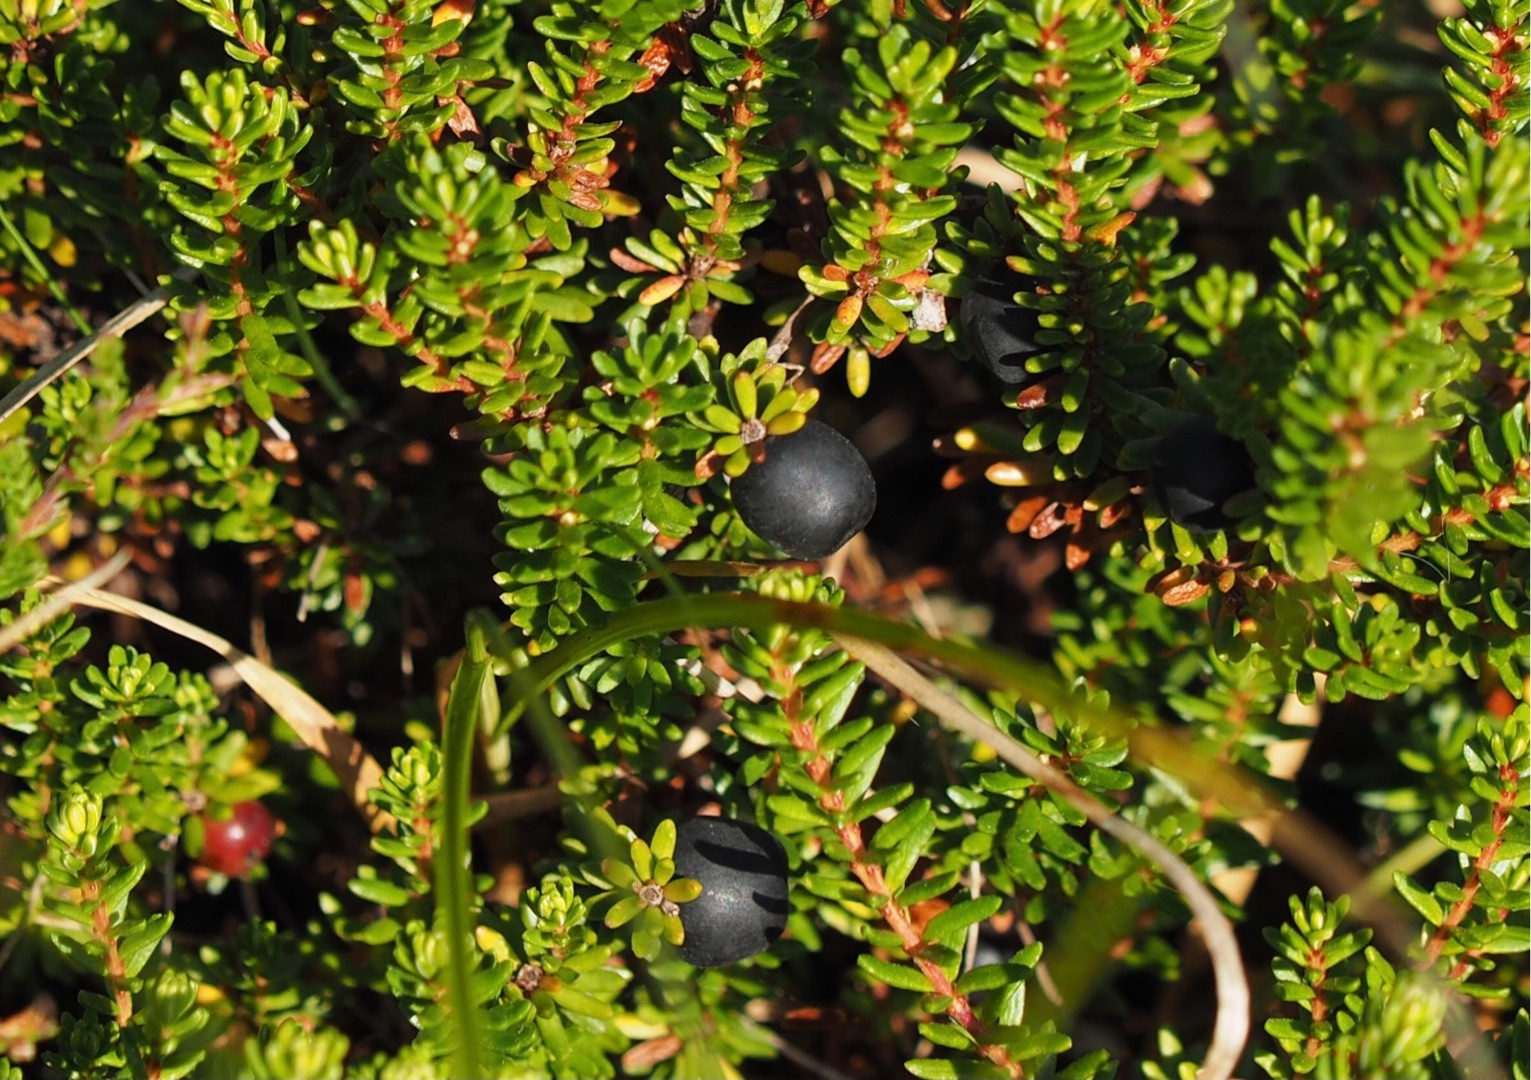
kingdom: Plantae
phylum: Tracheophyta
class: Magnoliopsida
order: Ericales
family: Ericaceae
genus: Empetrum
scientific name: Empetrum nigrum
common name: Revling
